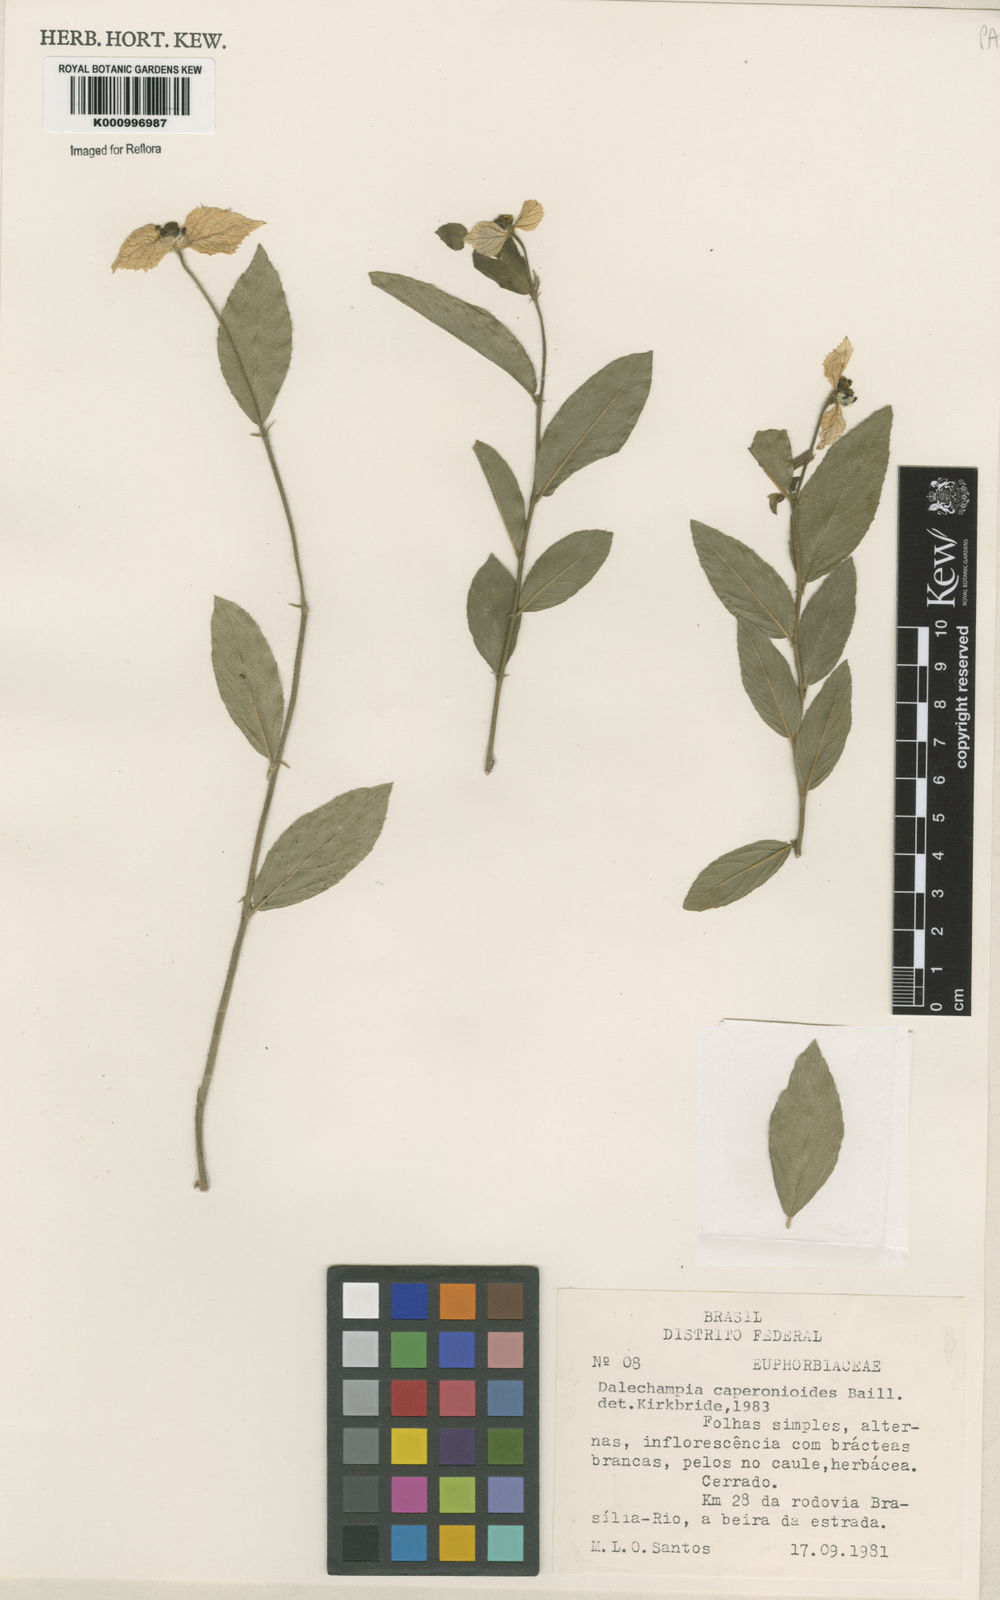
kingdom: Plantae
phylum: Tracheophyta
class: Magnoliopsida
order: Malpighiales
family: Euphorbiaceae
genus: Dalechampia
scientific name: Dalechampia caperonioides
